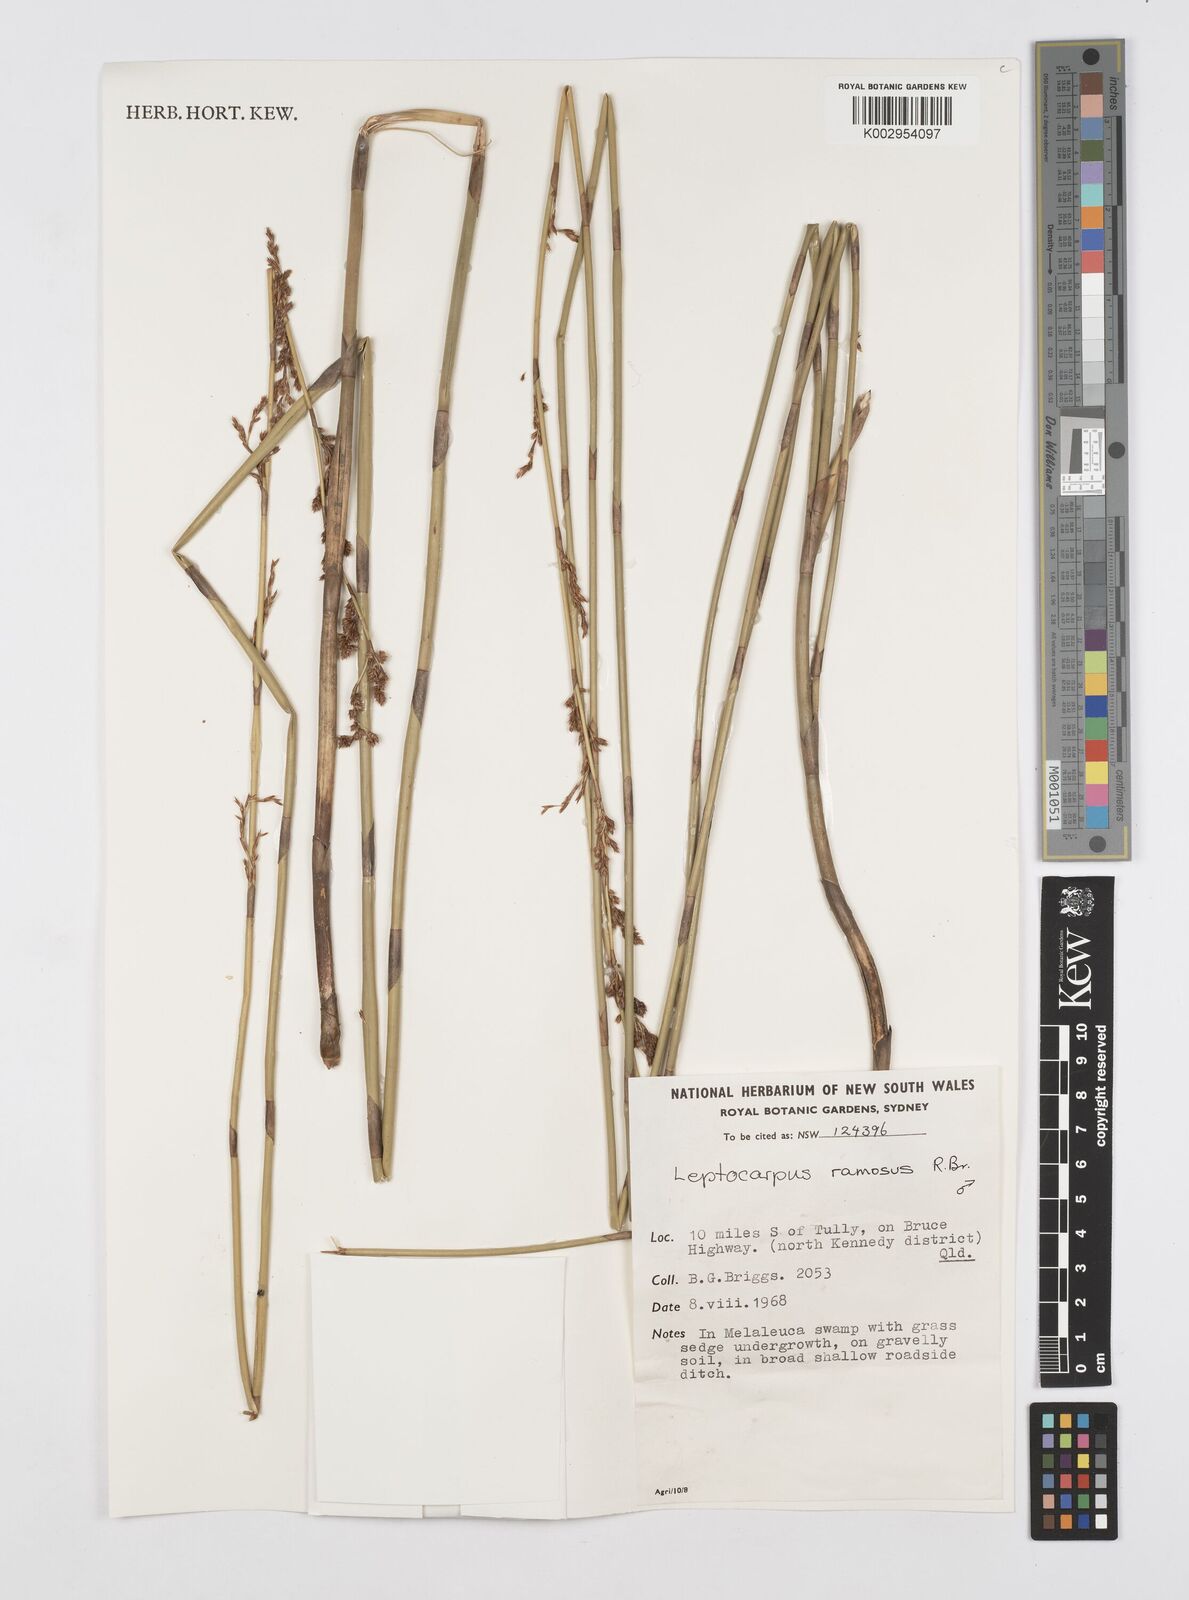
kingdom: Plantae
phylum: Tracheophyta
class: Liliopsida
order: Poales
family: Restionaceae
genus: Dapsilanthus
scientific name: Dapsilanthus ramosus
